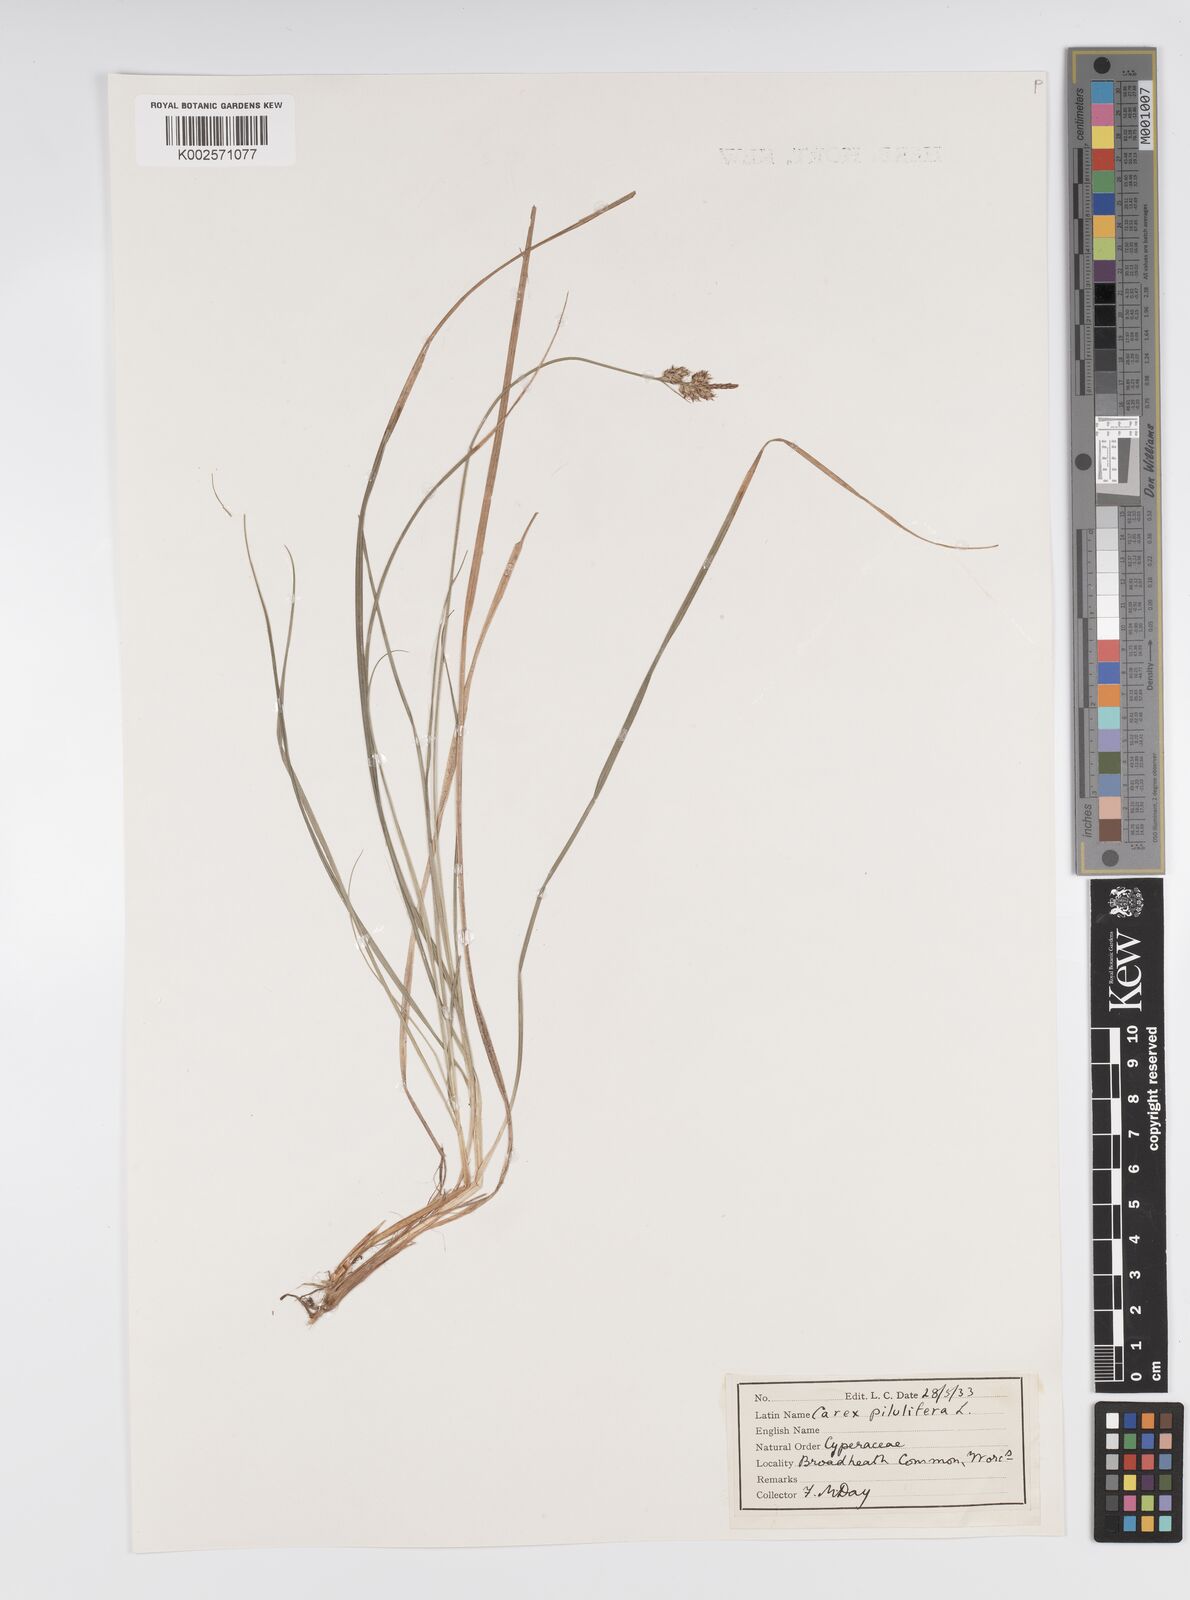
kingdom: Plantae
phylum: Tracheophyta
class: Liliopsida
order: Poales
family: Cyperaceae
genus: Carex
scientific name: Carex pilulifera
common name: Pill sedge
